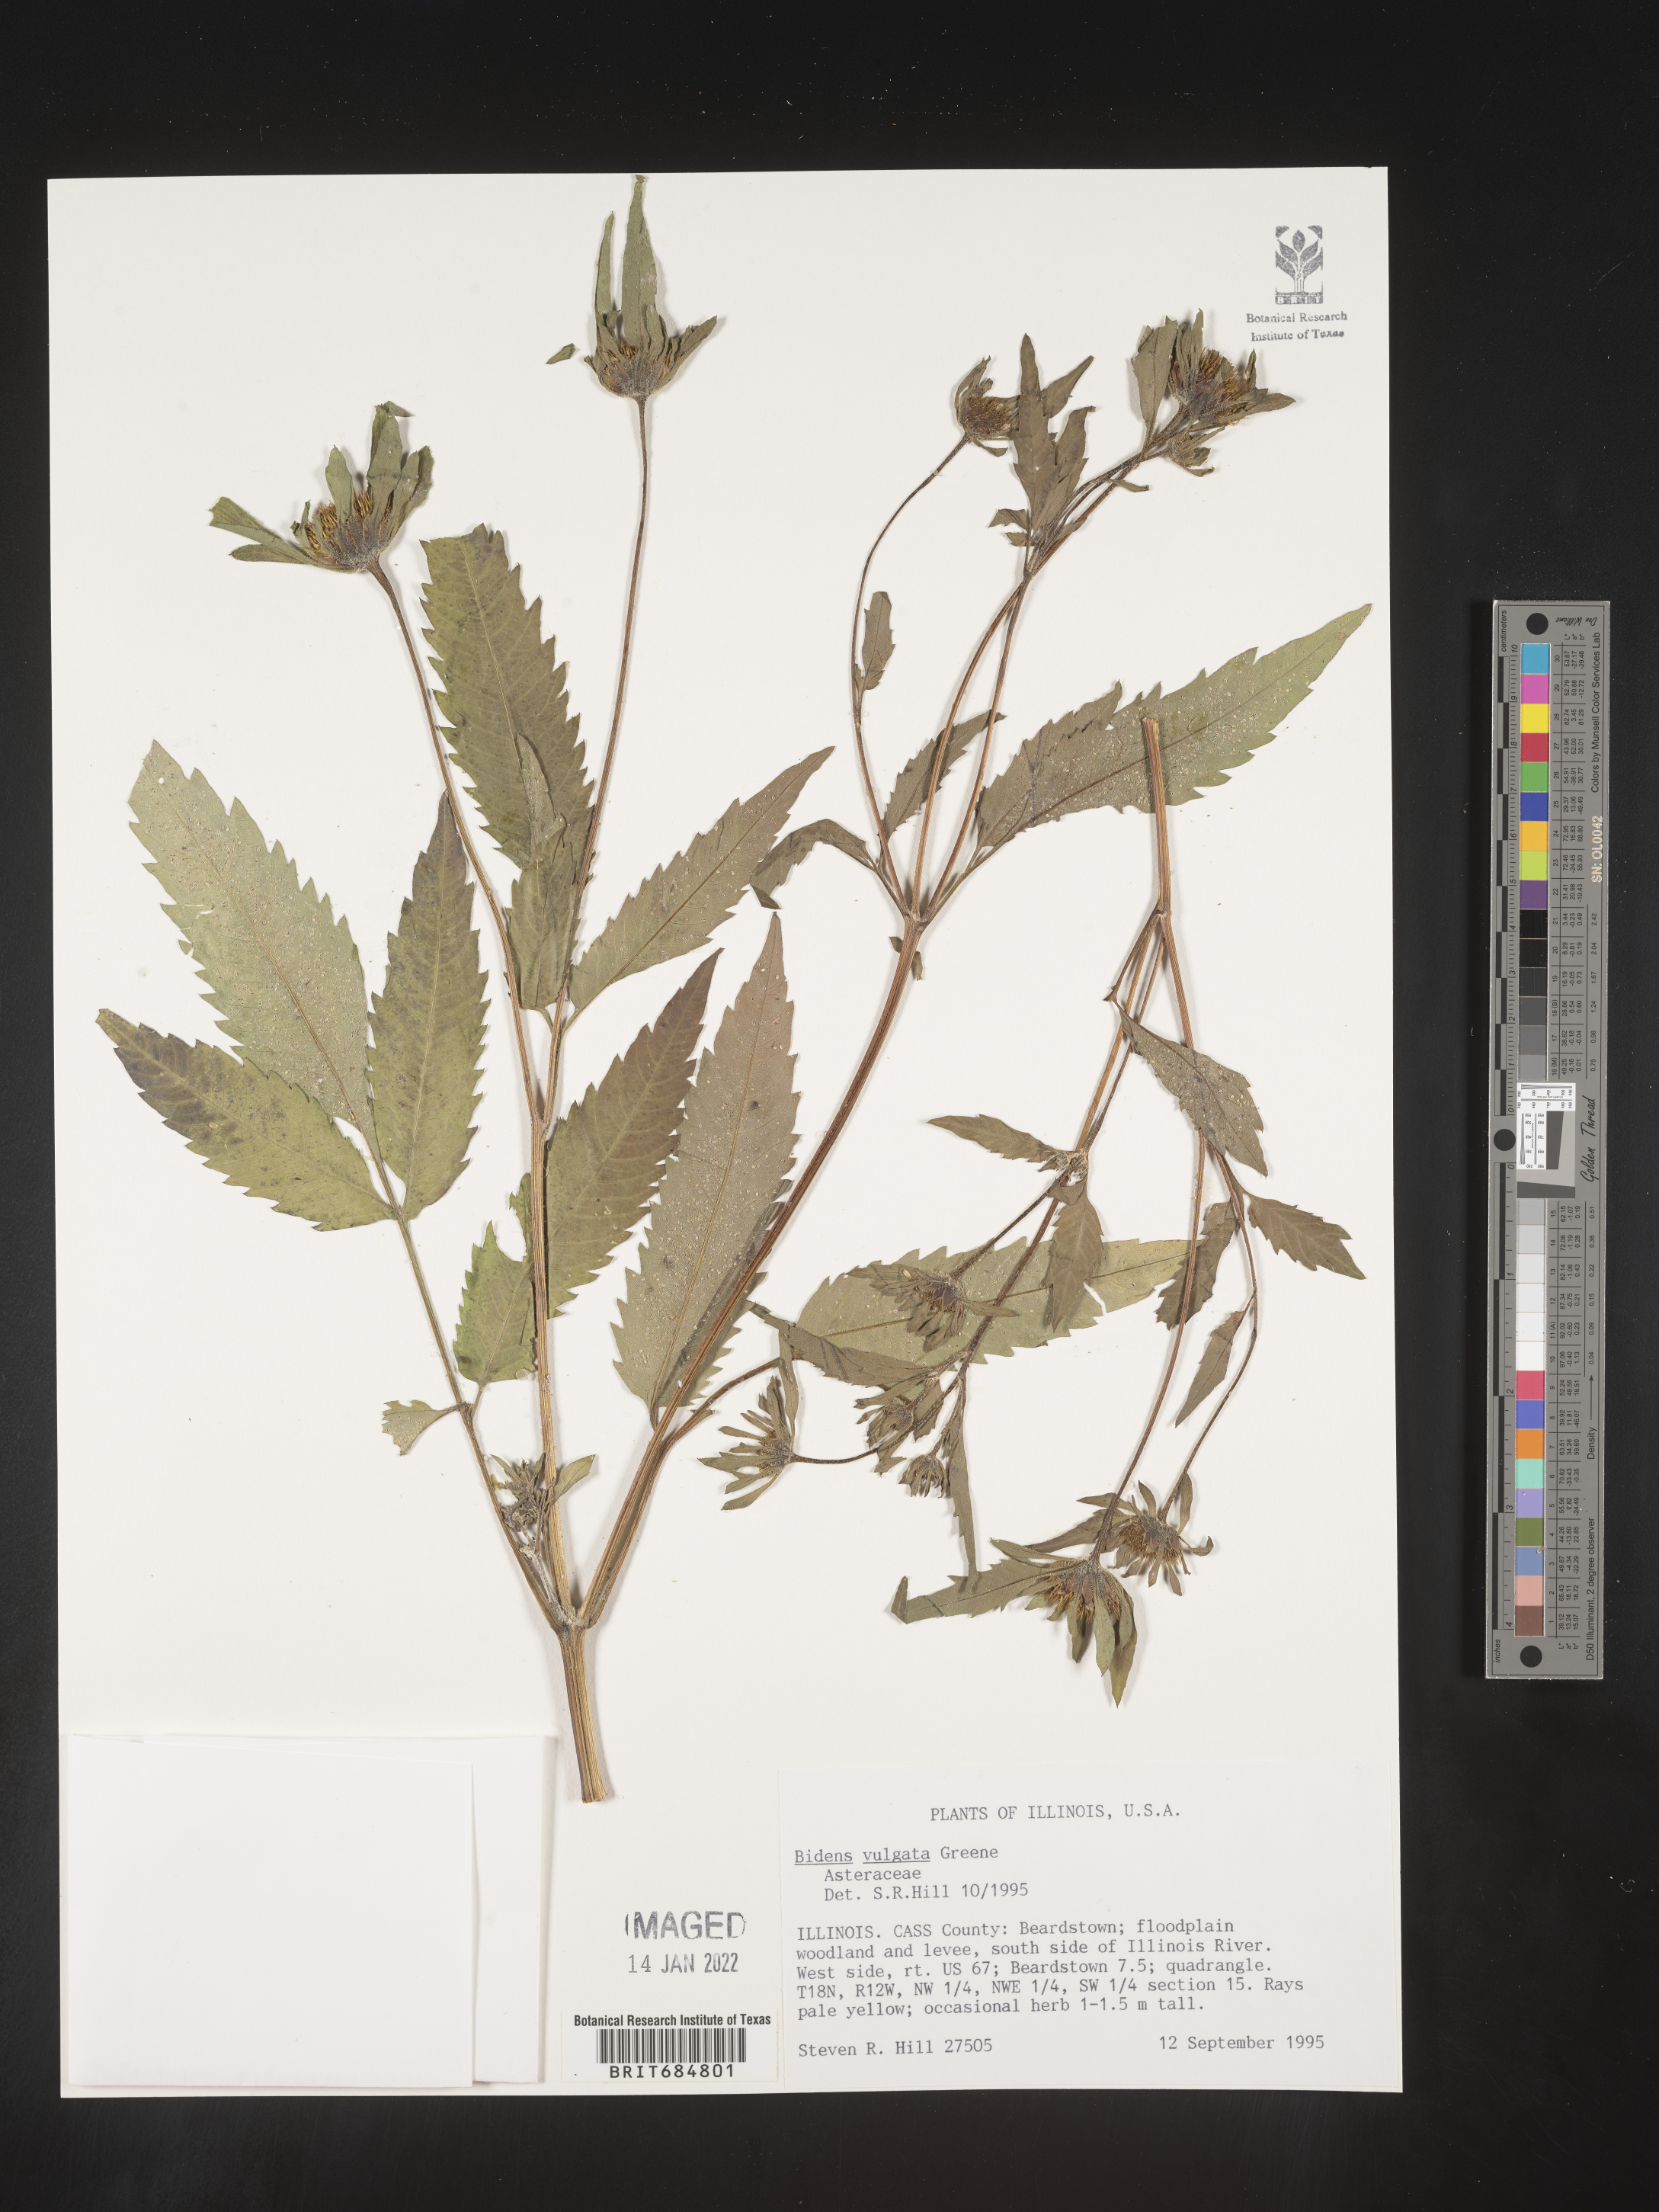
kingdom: Plantae
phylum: Tracheophyta
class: Magnoliopsida
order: Asterales
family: Asteraceae
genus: Bidens
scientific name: Bidens vulgata
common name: Tall beggarticks
